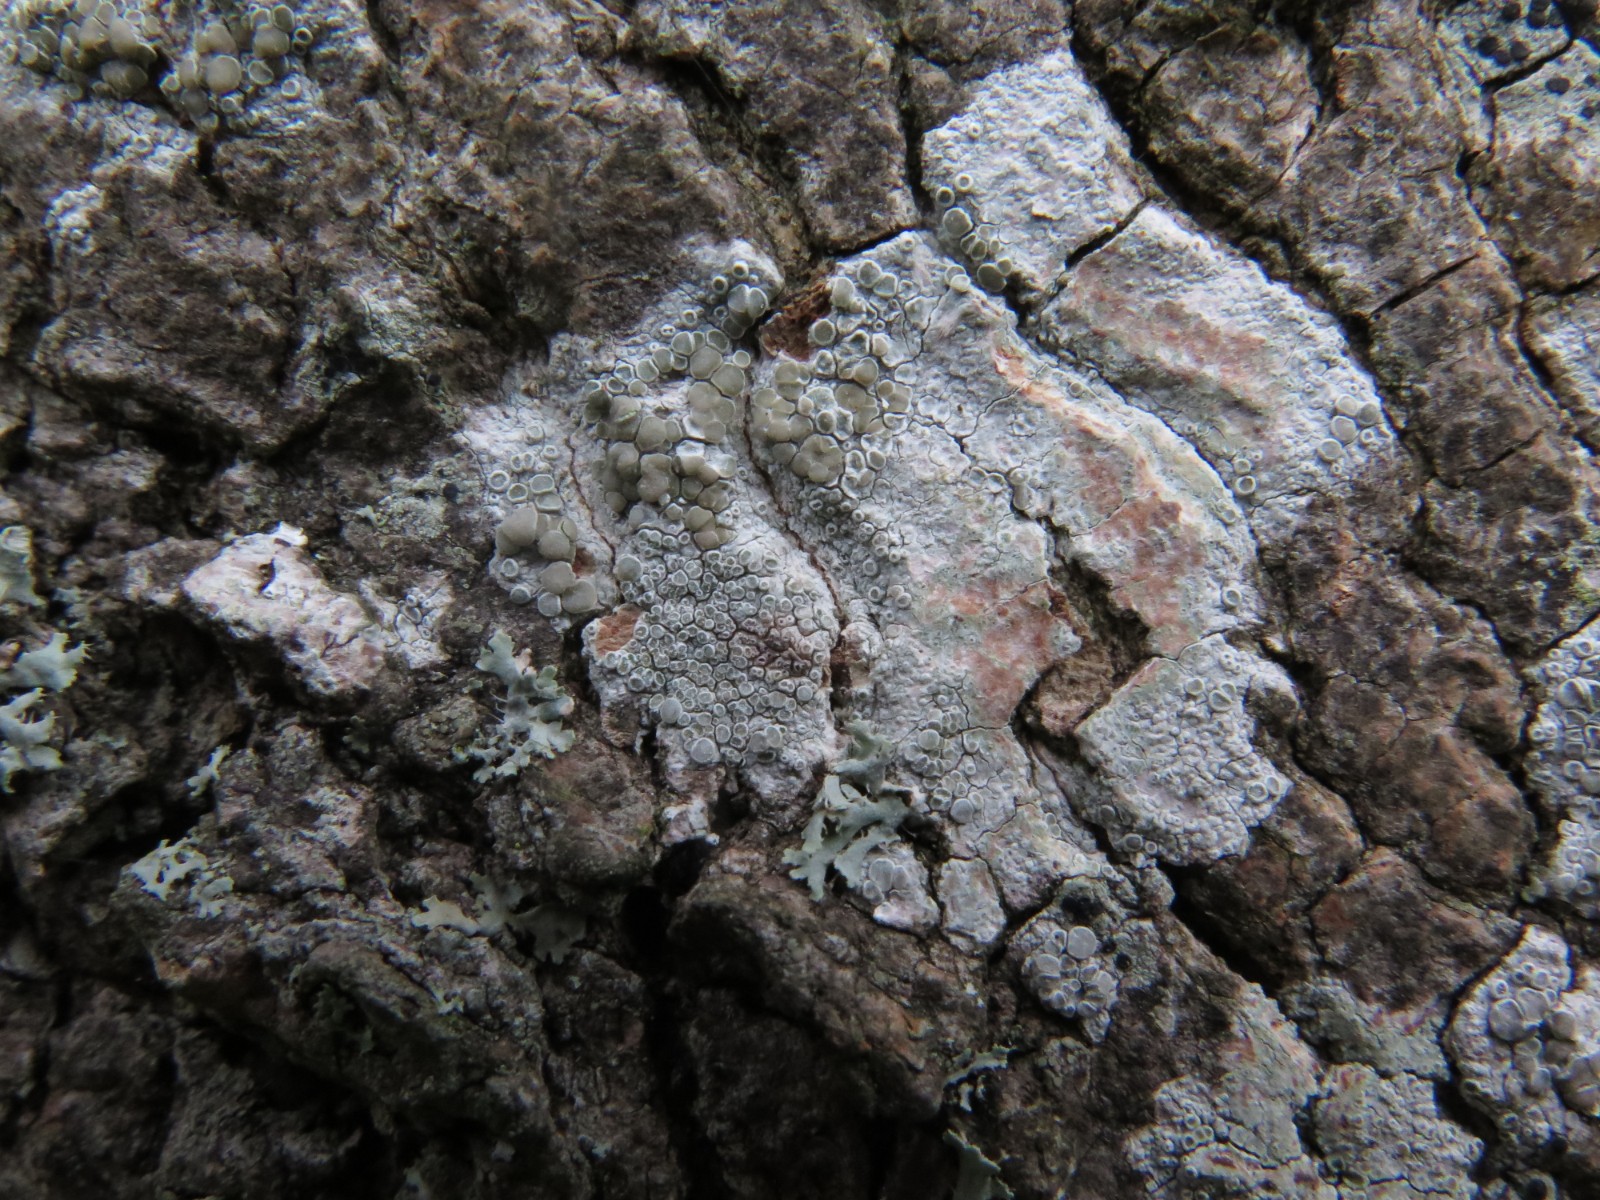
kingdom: Fungi
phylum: Ascomycota
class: Lecanoromycetes
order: Lecanorales
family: Lecanoraceae
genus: Glaucomaria
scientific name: Glaucomaria carpinea
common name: hviddugget kantskivelav
